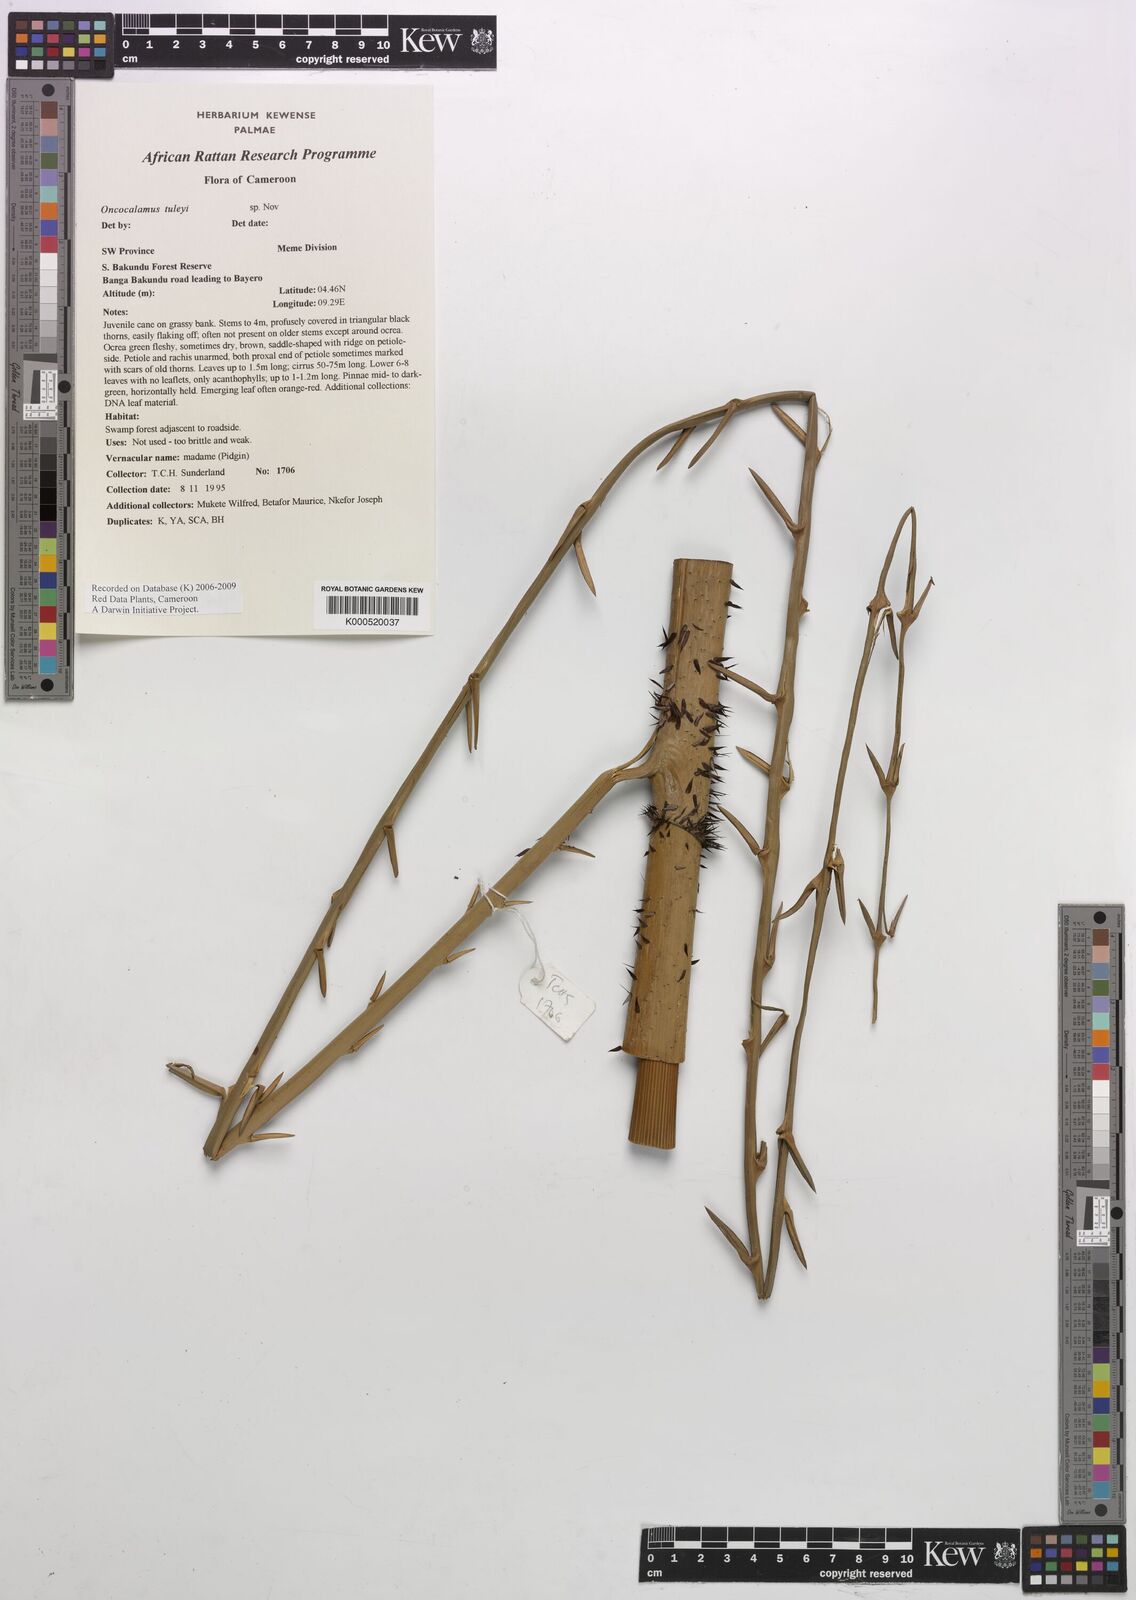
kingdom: Plantae
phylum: Tracheophyta
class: Liliopsida
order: Arecales
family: Arecaceae
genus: Oncocalamus
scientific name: Oncocalamus tuleyi
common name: Rattan
